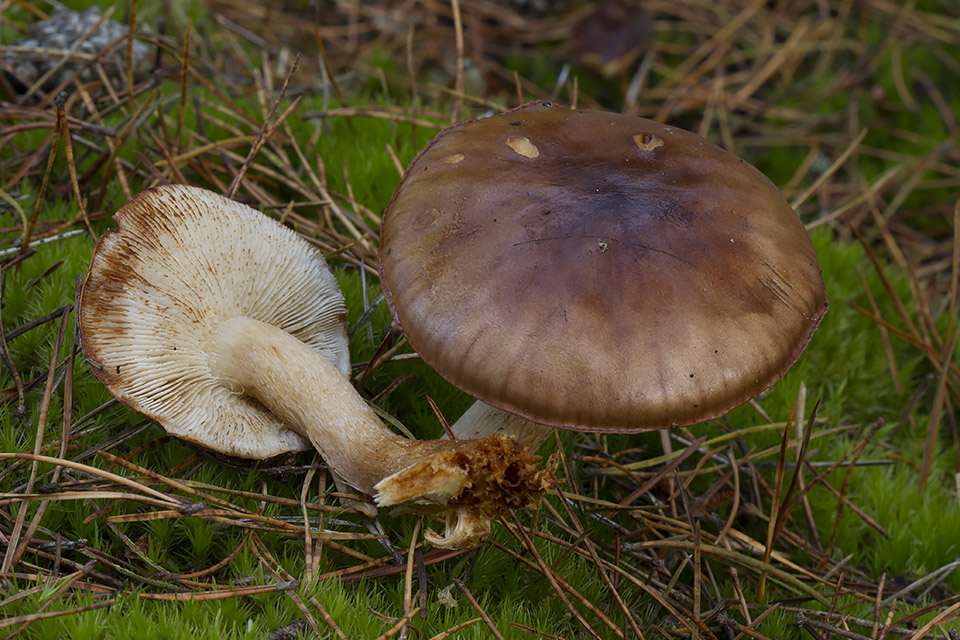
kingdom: Fungi
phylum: Basidiomycota
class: Agaricomycetes
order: Agaricales
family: Tricholomataceae
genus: Tricholoma
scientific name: Tricholoma stans
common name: stolt ridderhat
